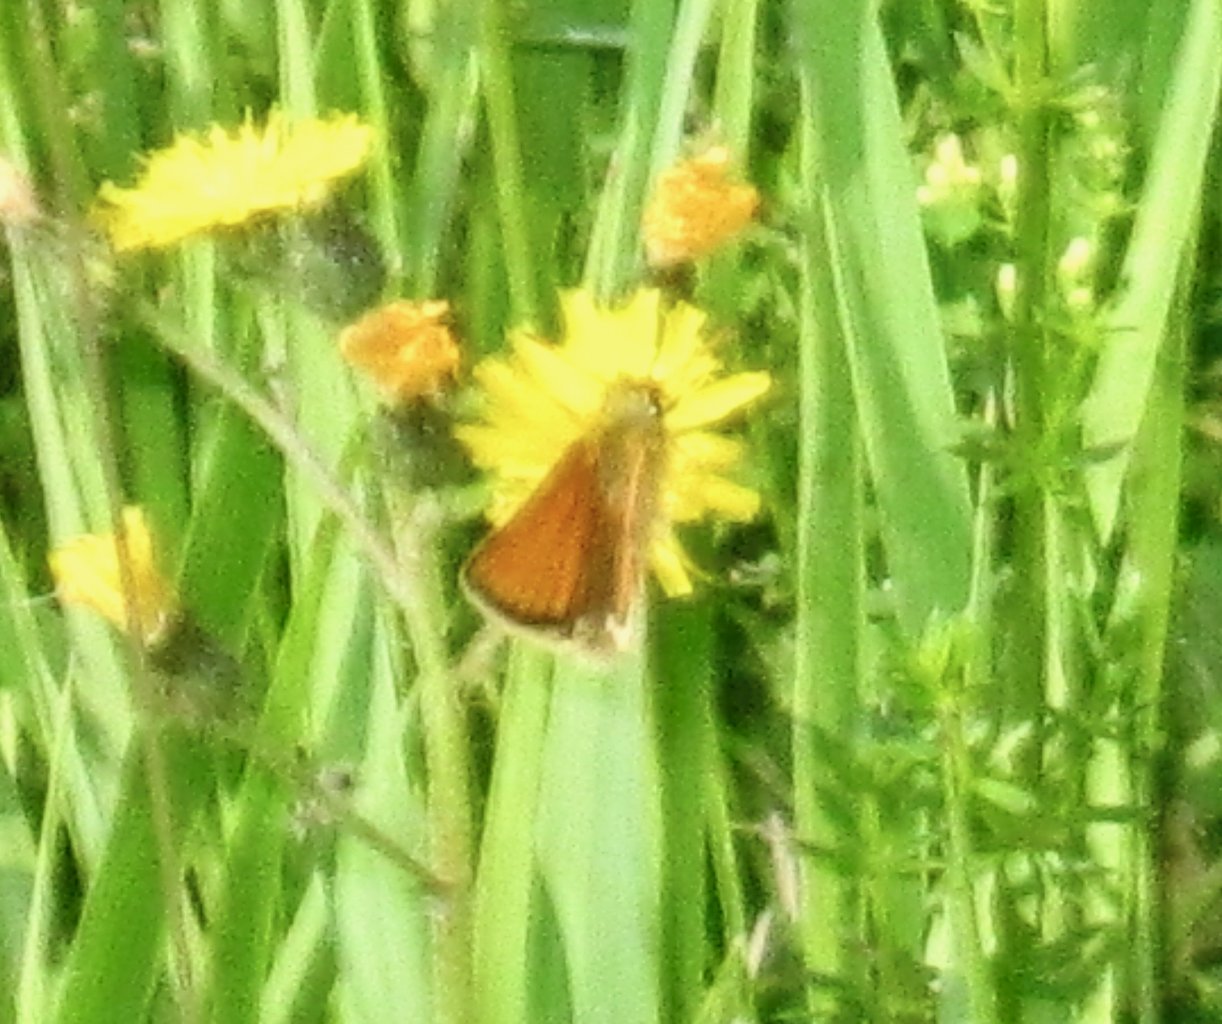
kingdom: Animalia
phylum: Arthropoda
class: Insecta
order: Lepidoptera
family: Hesperiidae
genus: Thymelicus
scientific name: Thymelicus lineola
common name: European Skipper
